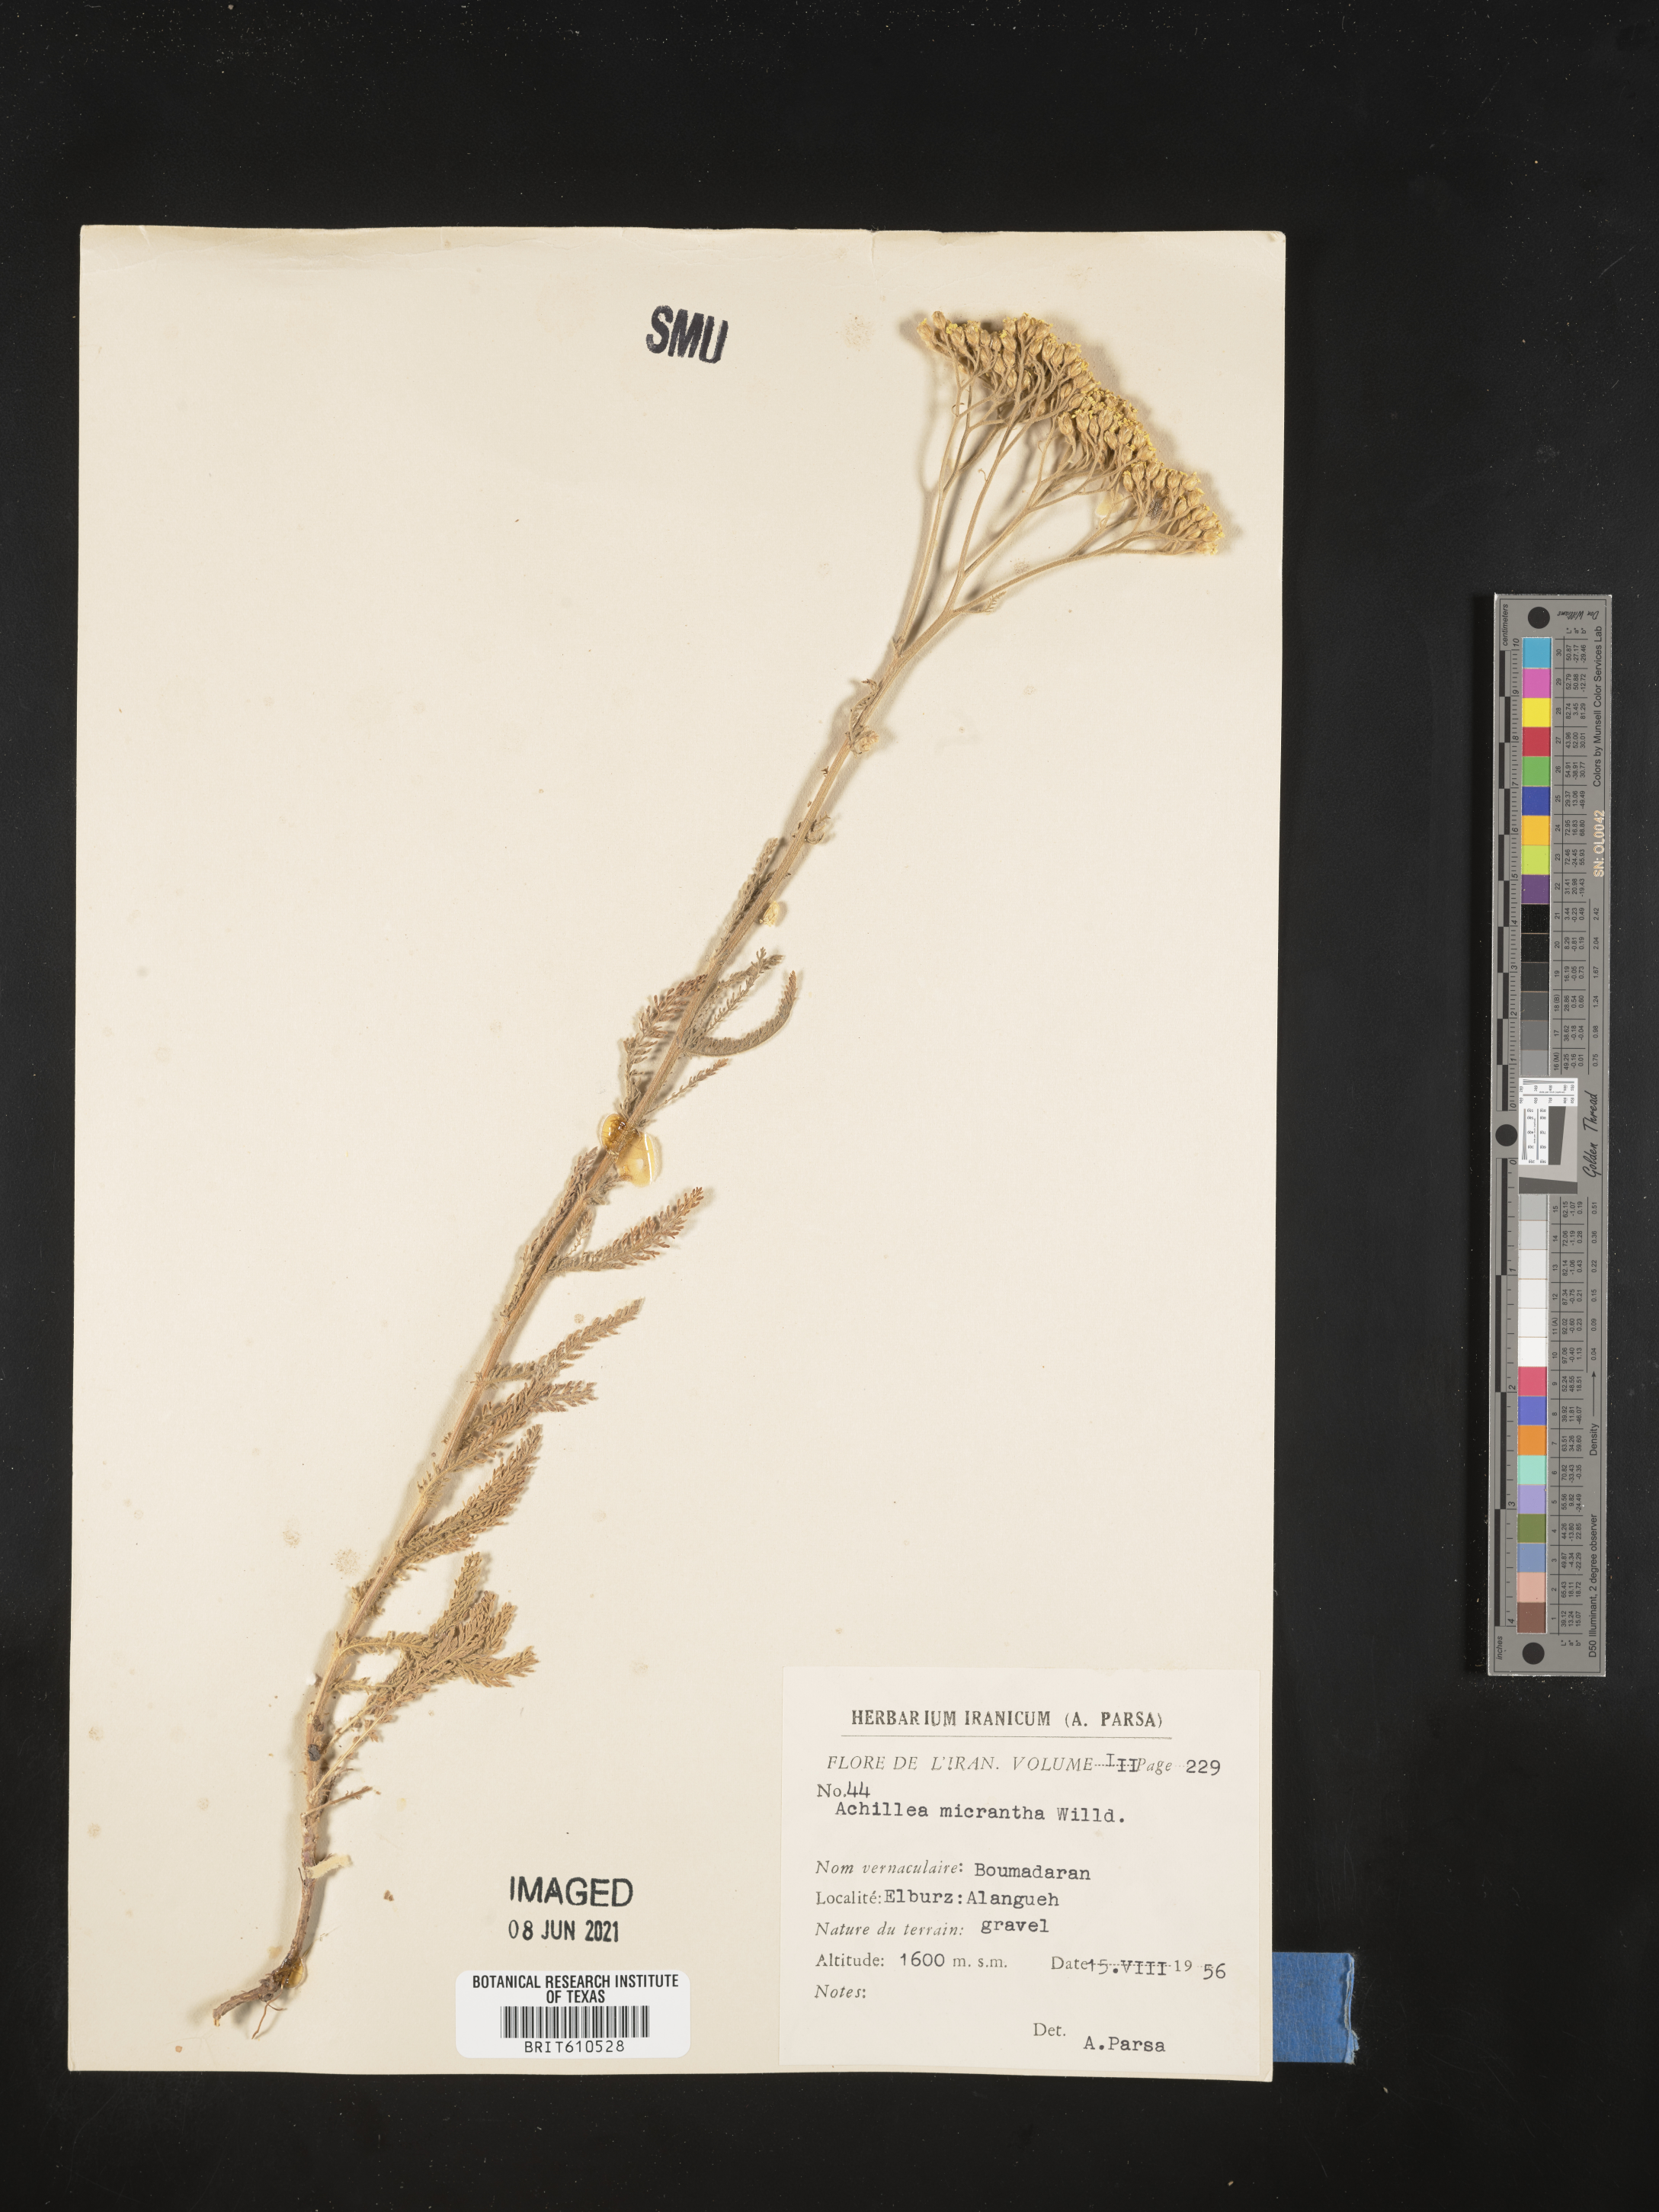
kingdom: Plantae
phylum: Tracheophyta
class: Magnoliopsida
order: Asterales
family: Asteraceae
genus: Achillea
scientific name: Achillea micrantha
